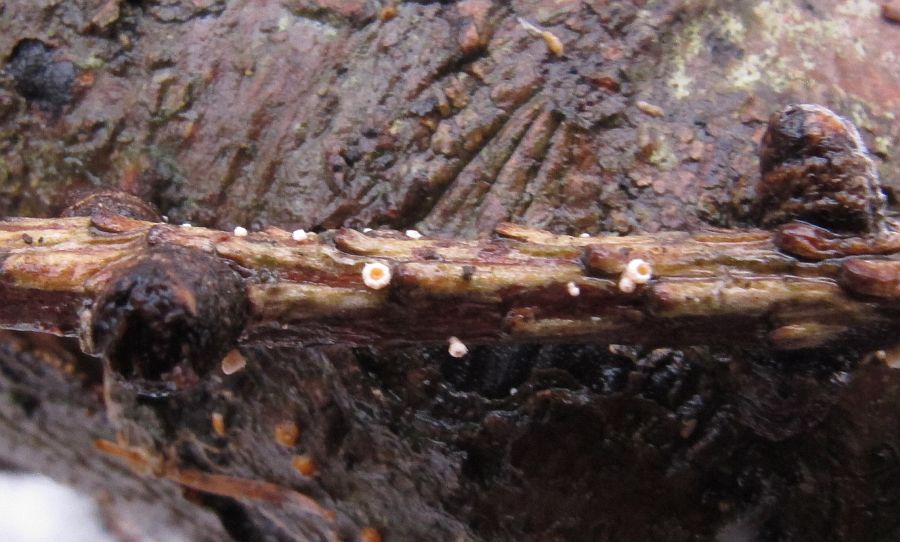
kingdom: Fungi
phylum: Ascomycota
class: Leotiomycetes
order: Helotiales
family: Lachnaceae
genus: Lachnellula
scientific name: Lachnellula occidentalis
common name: Larch disco
